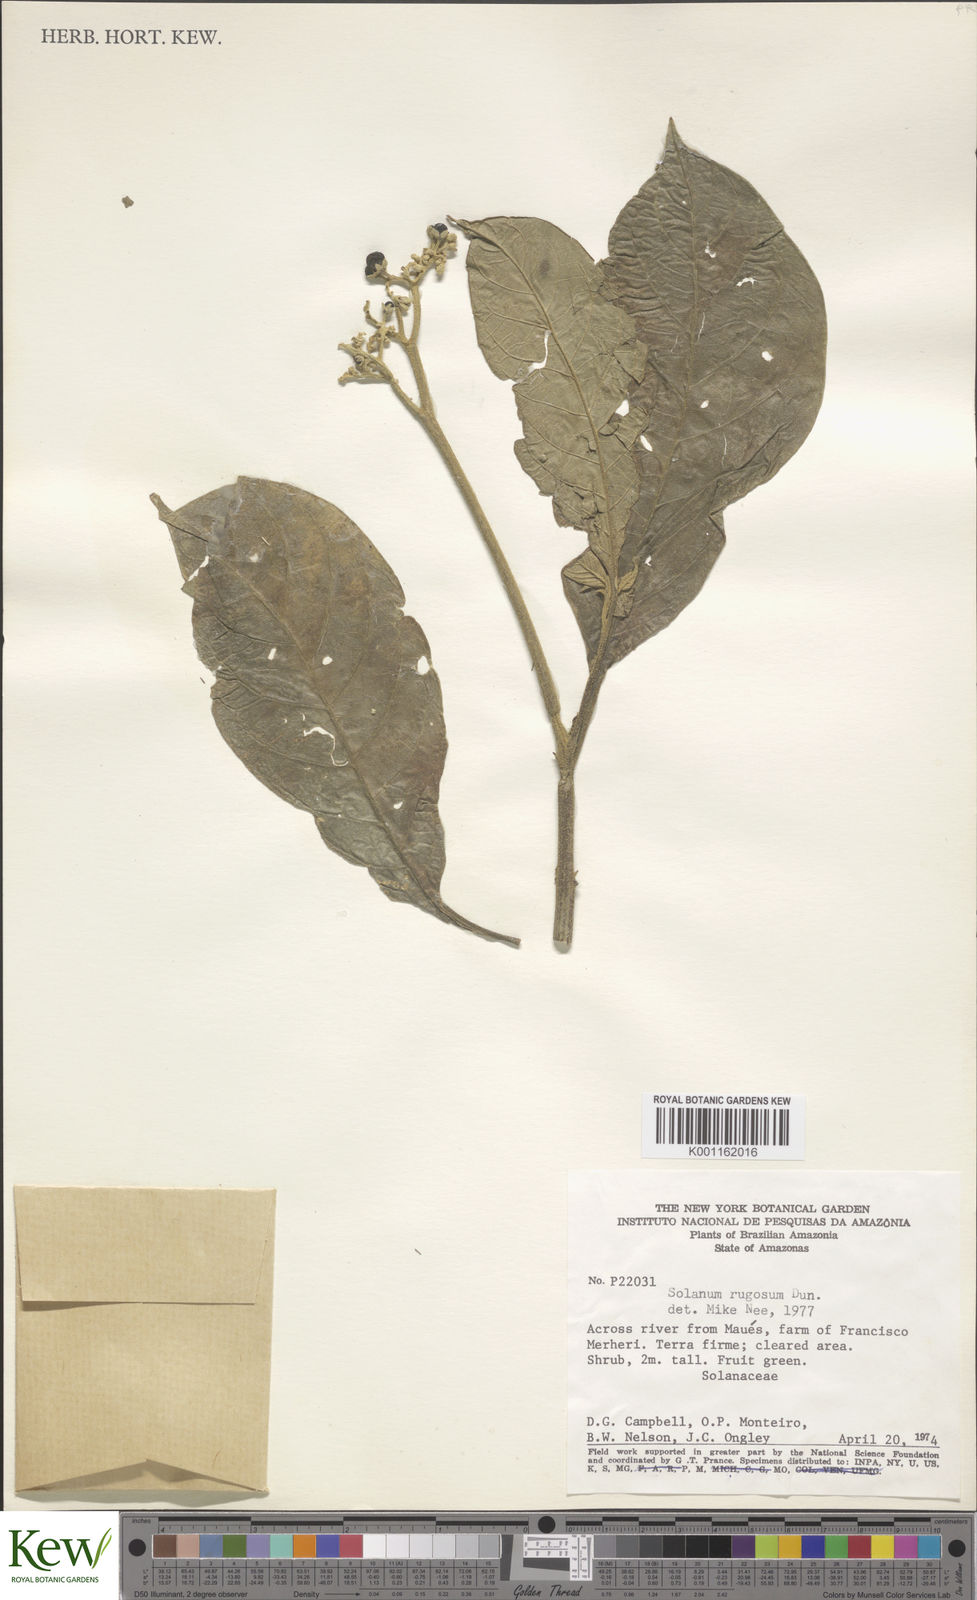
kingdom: Plantae
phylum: Tracheophyta
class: Magnoliopsida
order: Solanales
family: Solanaceae
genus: Solanum
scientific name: Solanum rugosum
